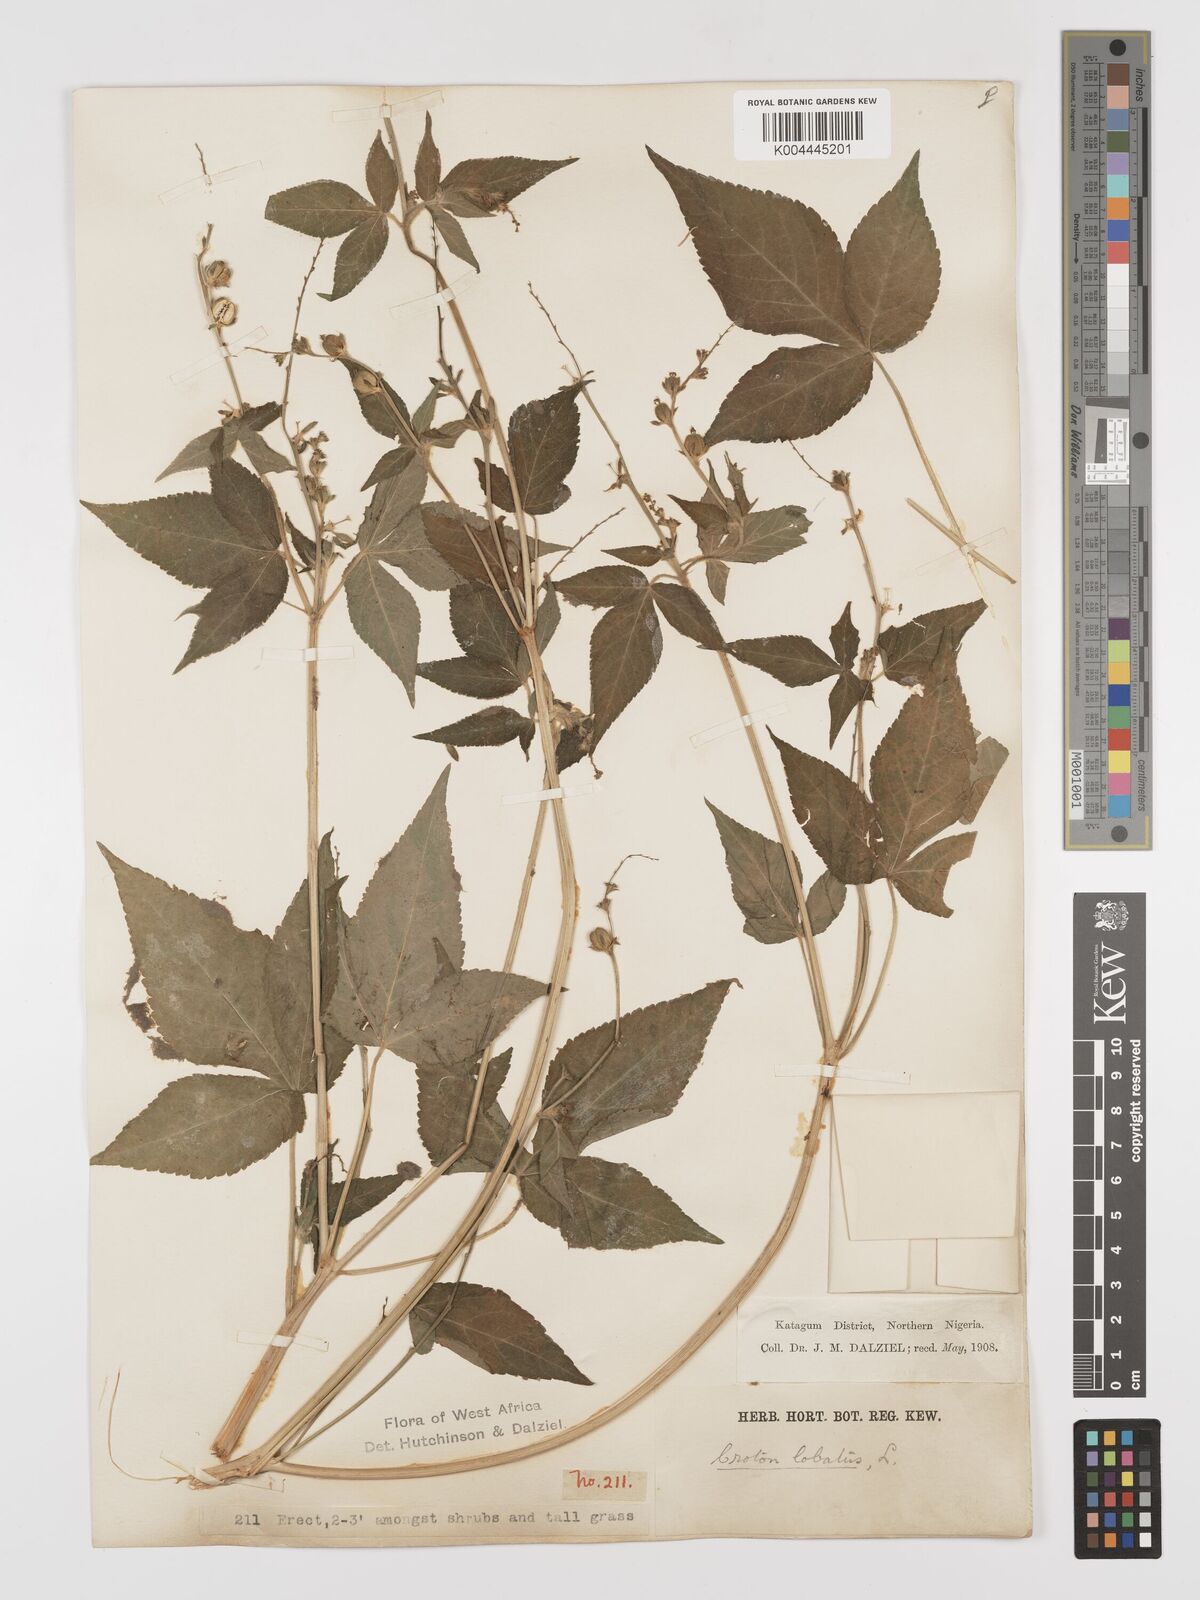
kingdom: Plantae
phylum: Tracheophyta
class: Magnoliopsida
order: Malpighiales
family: Euphorbiaceae
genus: Astraea
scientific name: Astraea lobata
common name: Lobed croton
